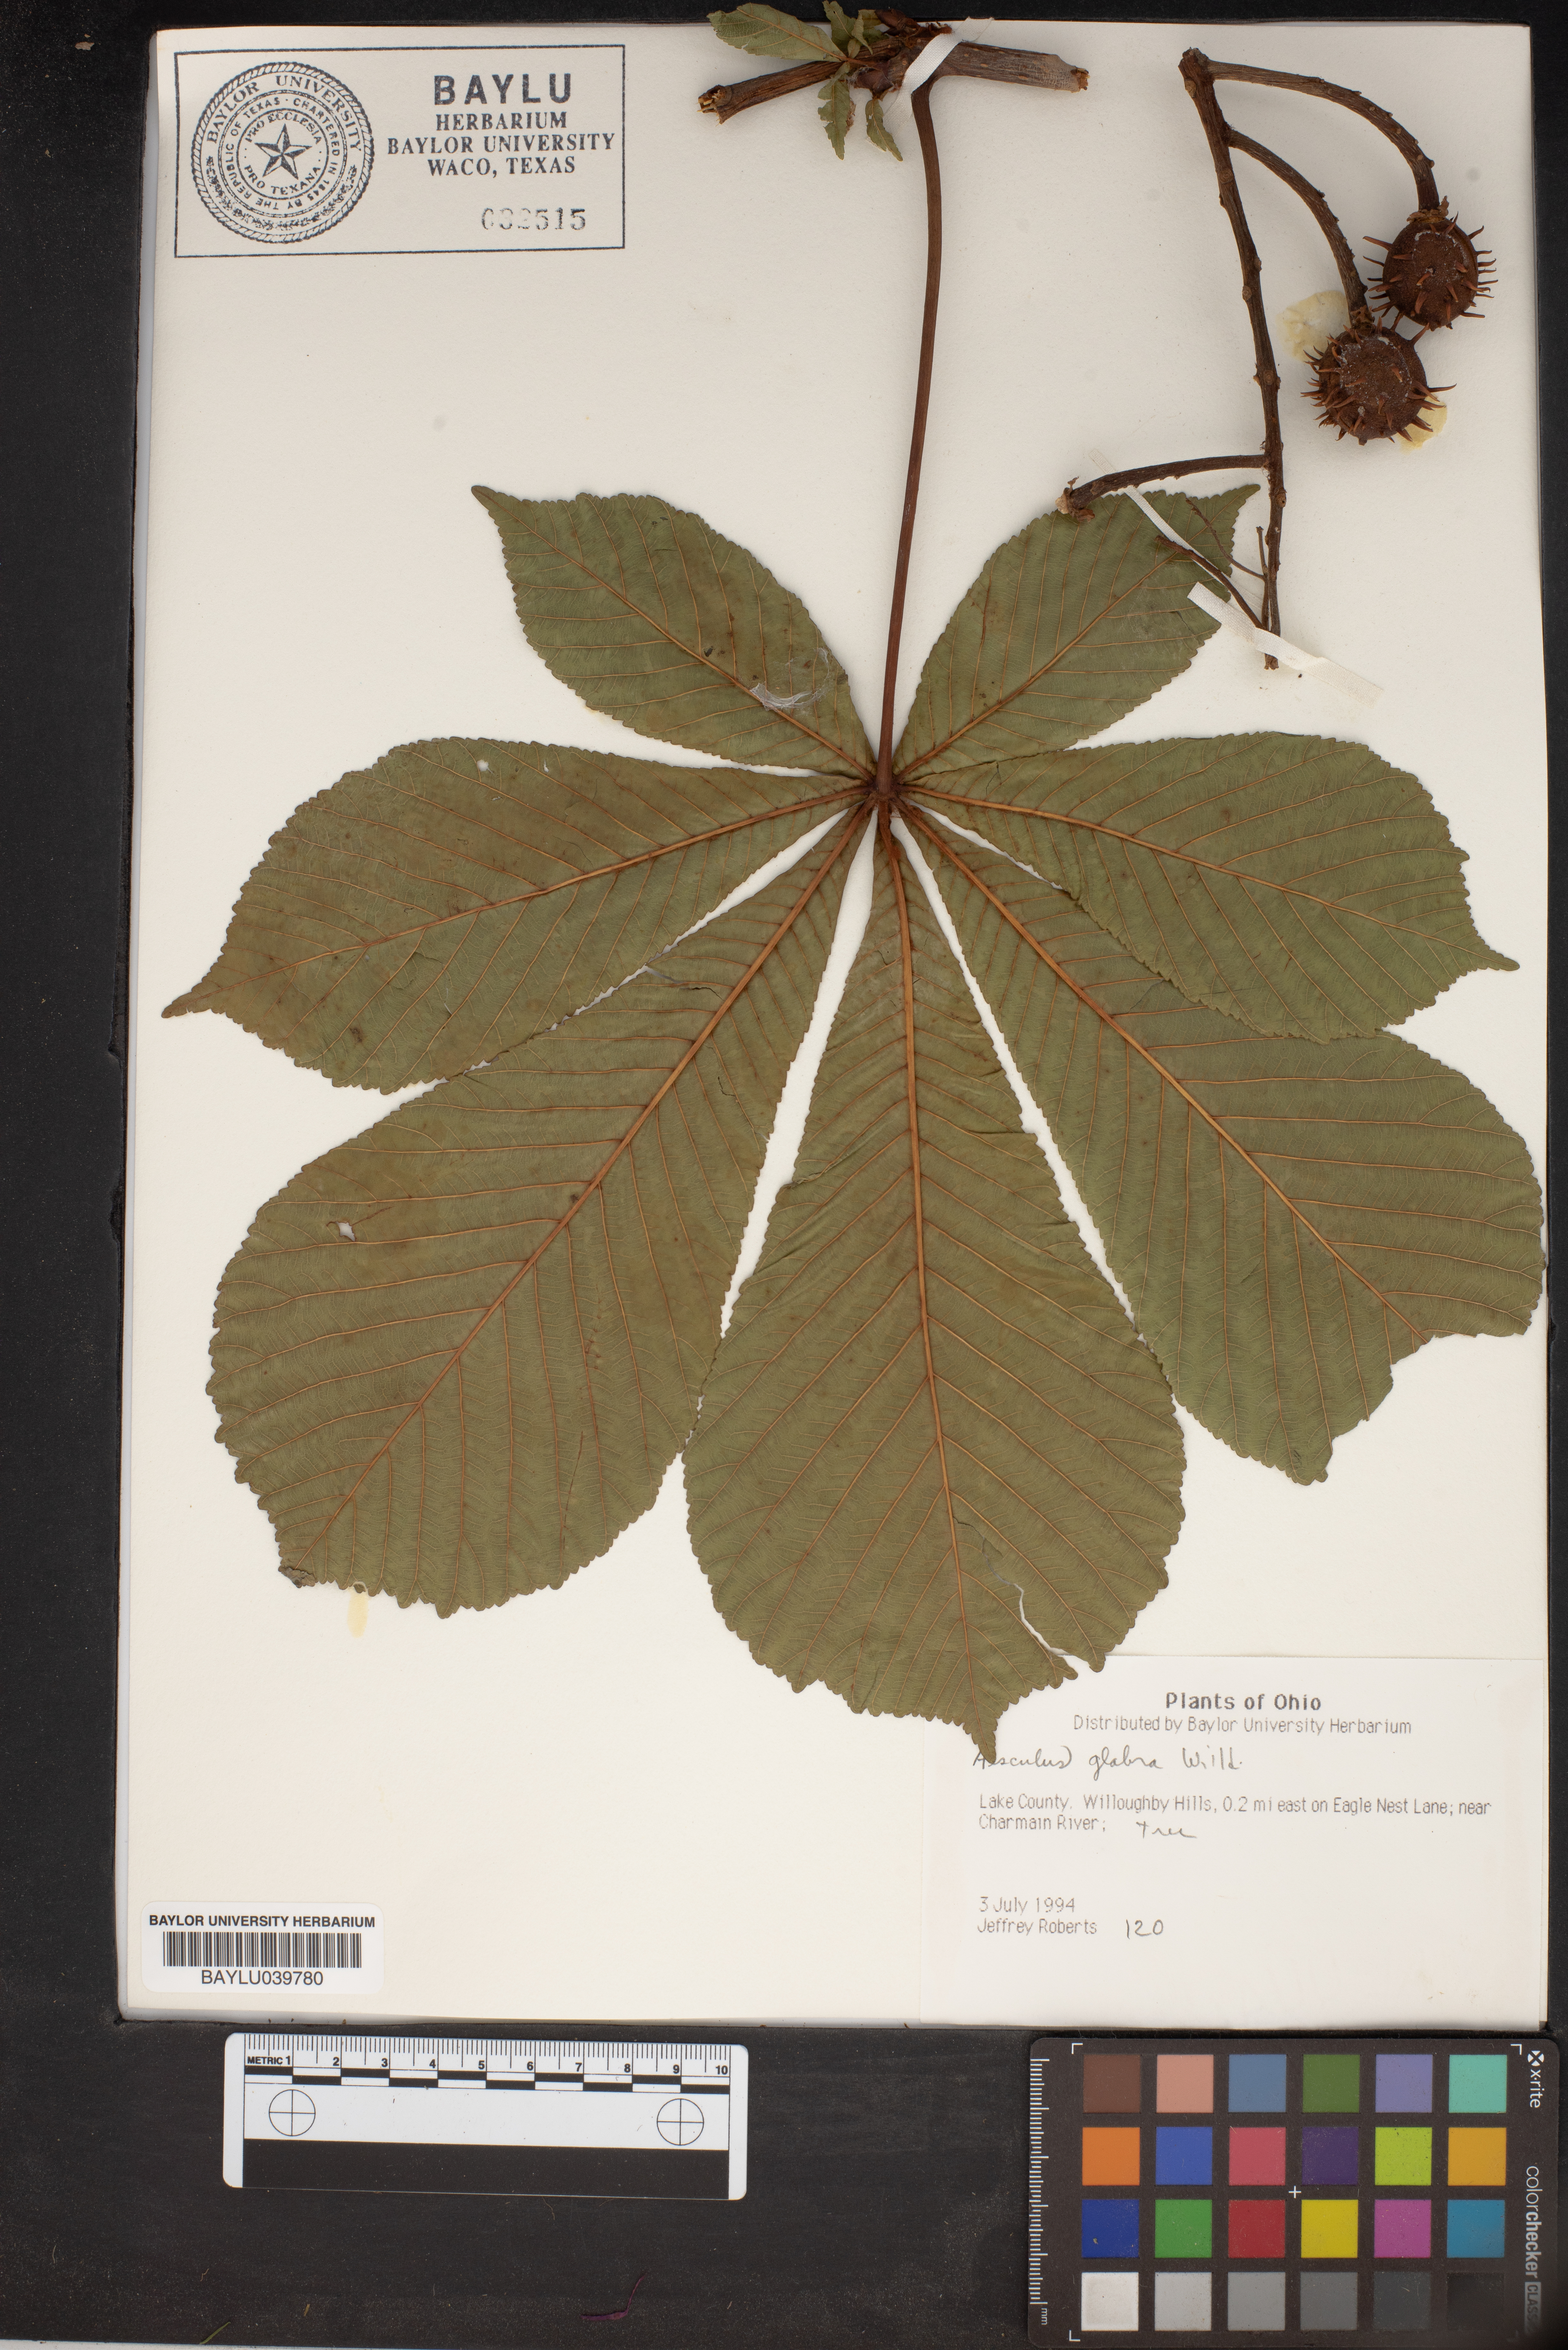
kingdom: Plantae
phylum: Tracheophyta
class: Magnoliopsida
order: Sapindales
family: Sapindaceae
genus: Aesculus
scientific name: Aesculus glabra
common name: Ohio buckeye
